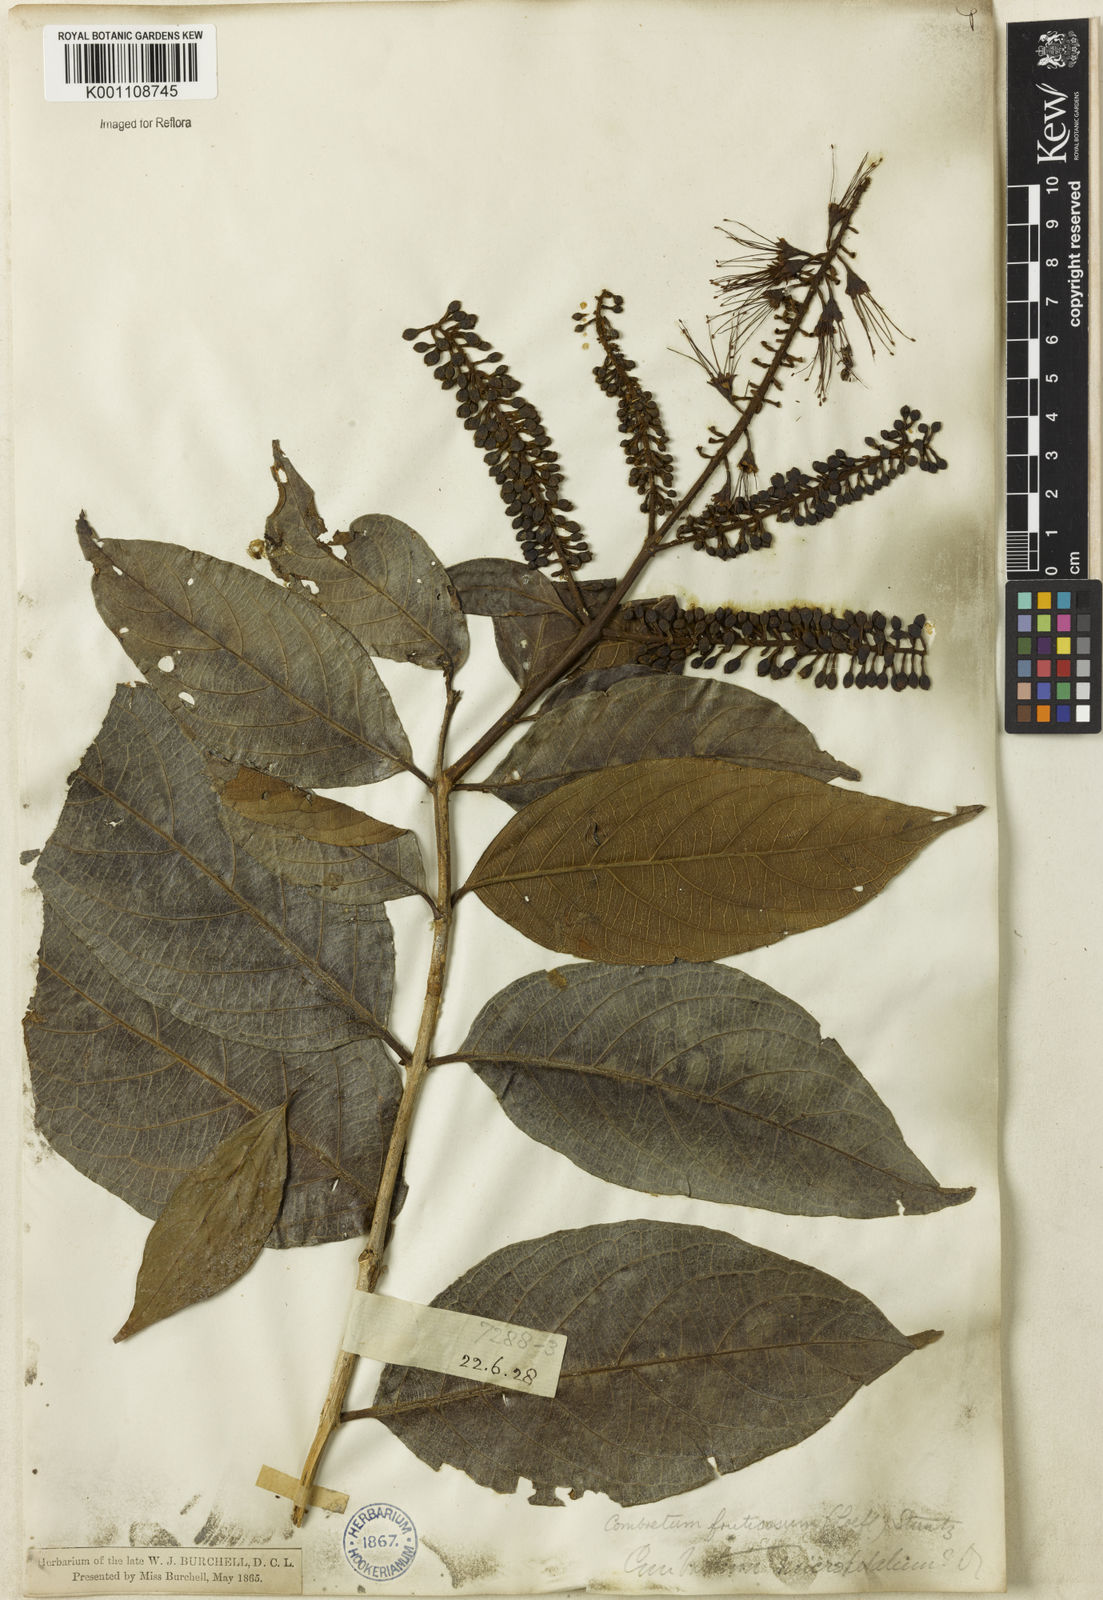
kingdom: Plantae
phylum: Tracheophyta
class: Magnoliopsida
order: Myrtales
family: Combretaceae
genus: Combretum
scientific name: Combretum fruticosum
